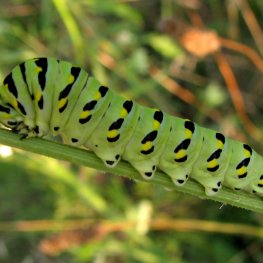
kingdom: Animalia
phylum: Arthropoda
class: Insecta
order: Lepidoptera
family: Papilionidae
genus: Papilio
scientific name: Papilio polyxenes
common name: Black Swallowtail
